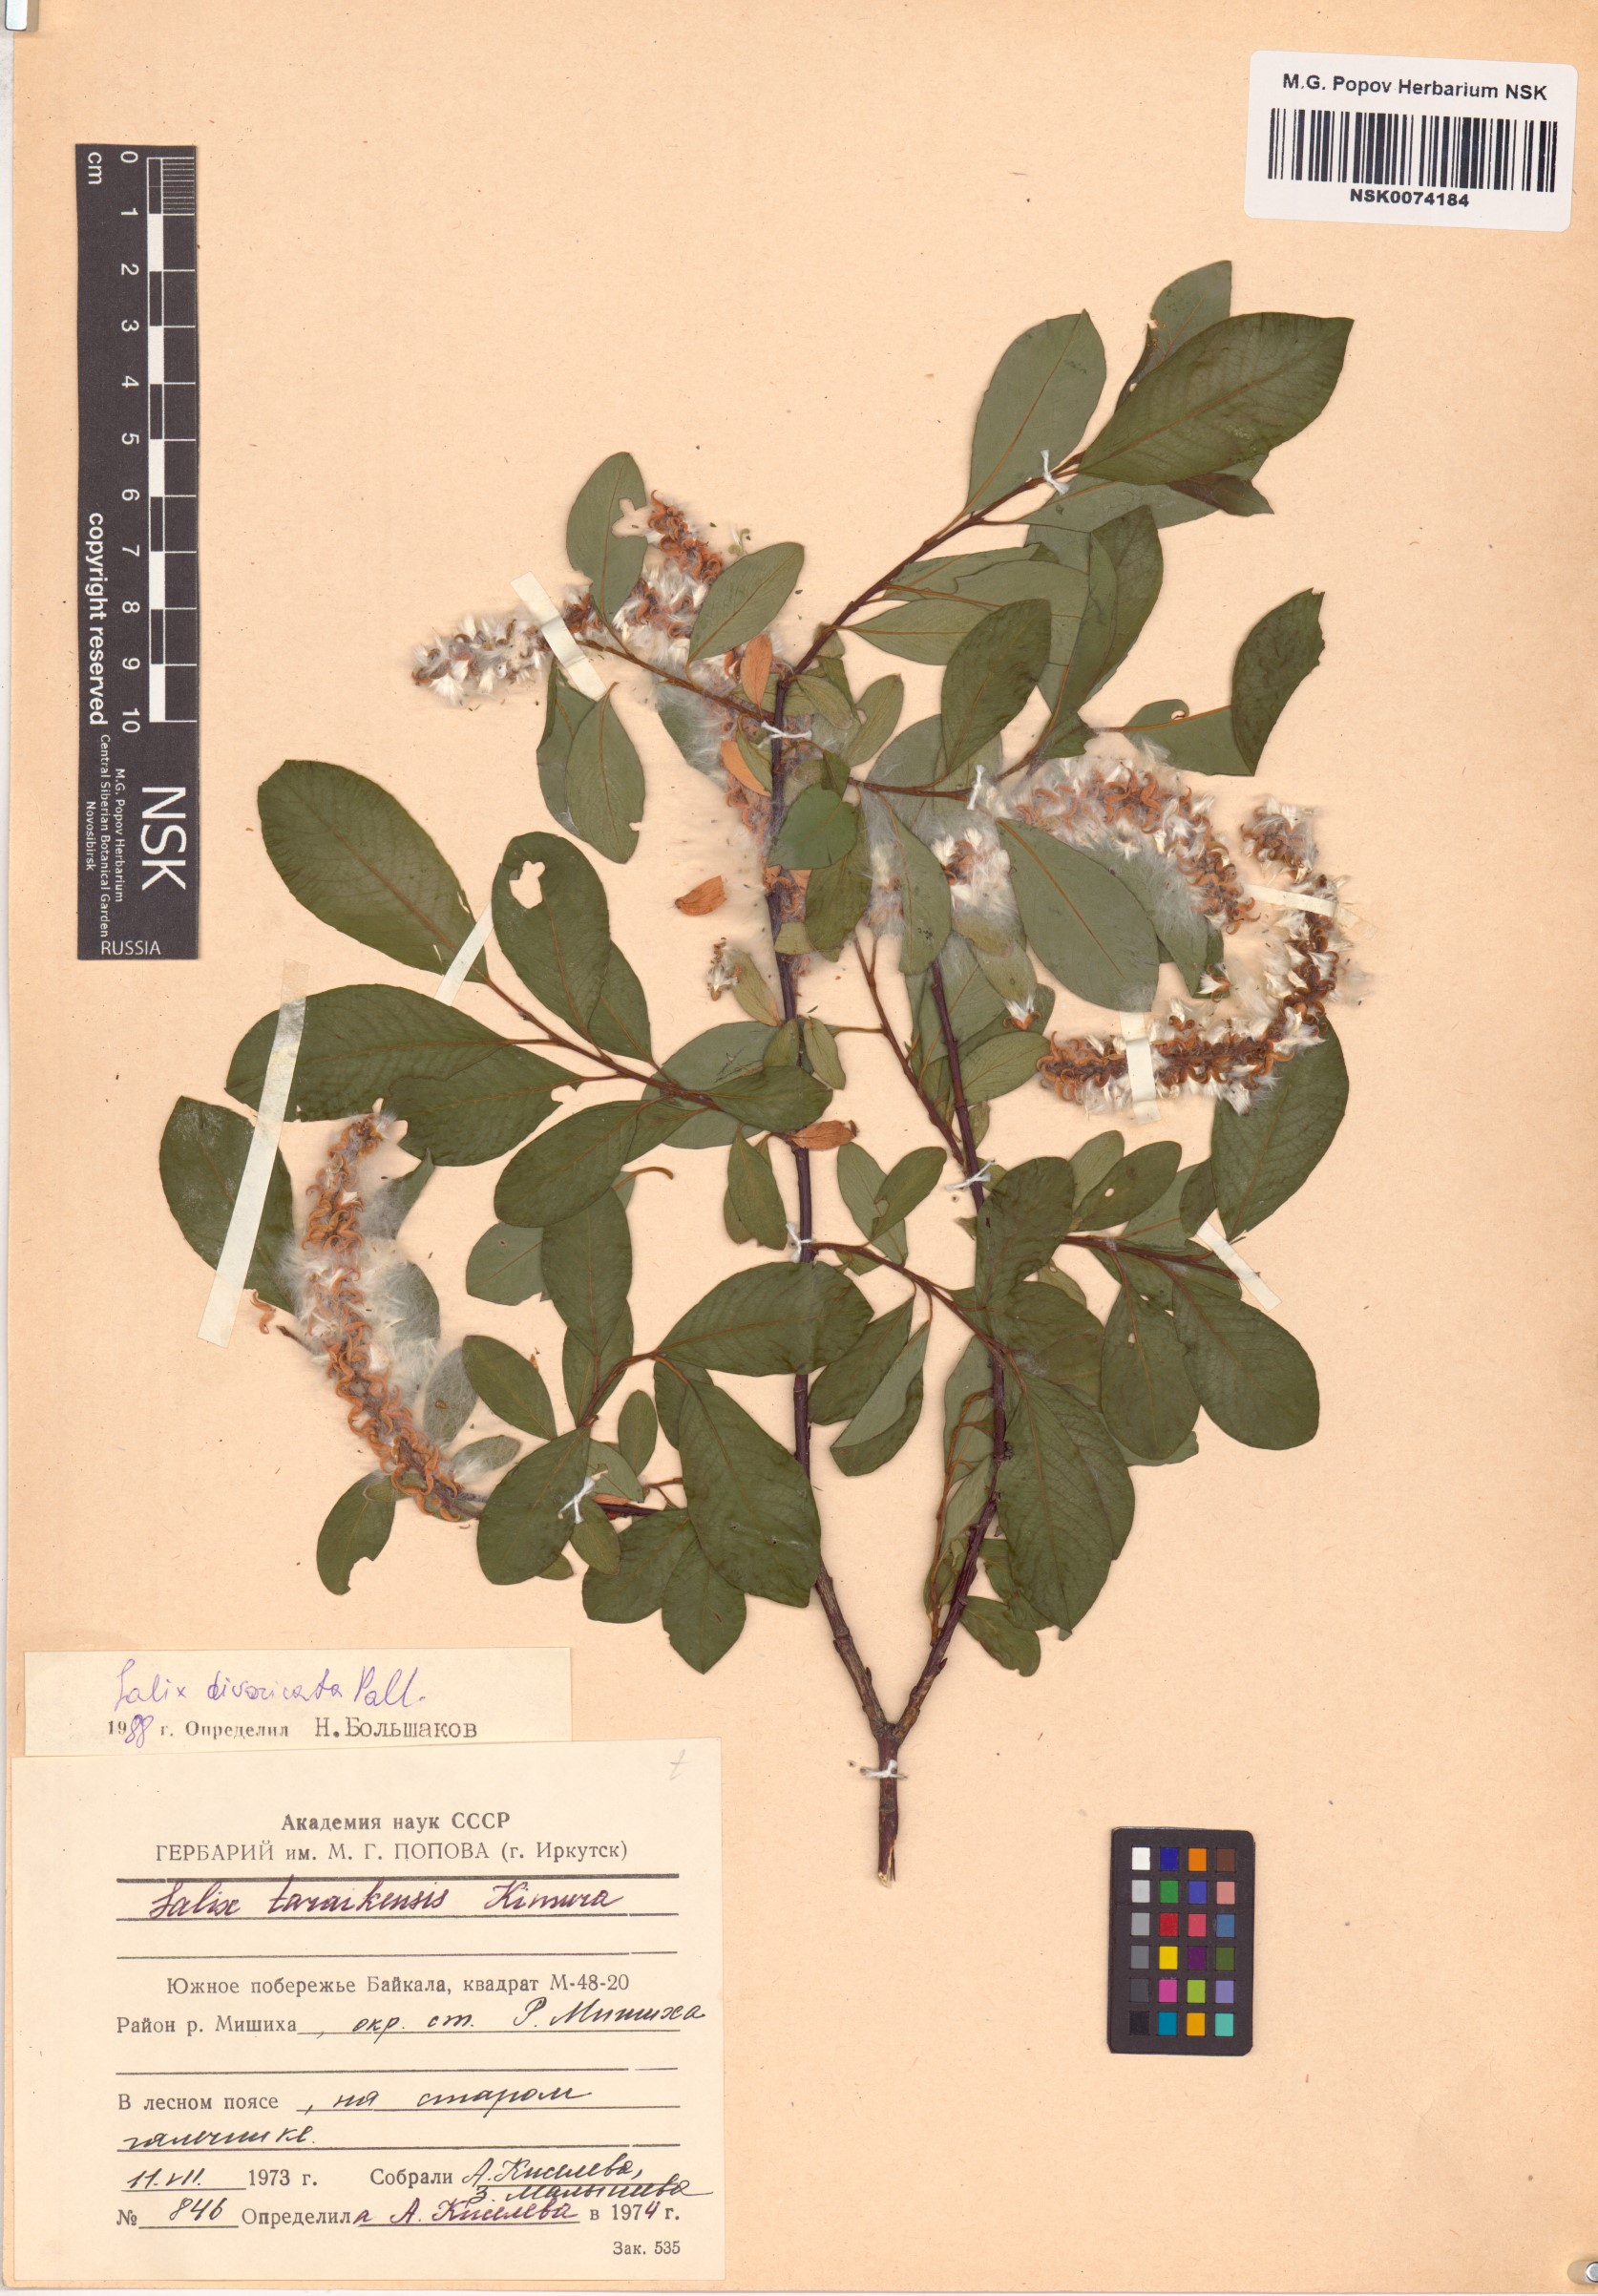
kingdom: Plantae
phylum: Tracheophyta
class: Magnoliopsida
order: Malpighiales
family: Salicaceae
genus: Salix
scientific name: Salix divaricata
